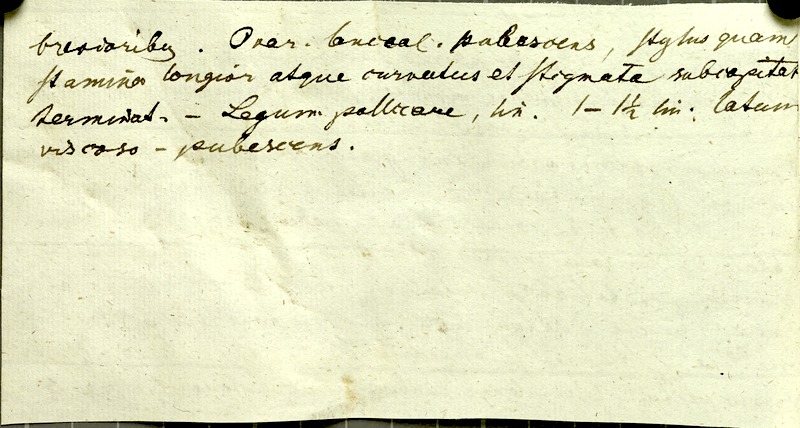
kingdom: Plantae
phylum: Tracheophyta
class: Magnoliopsida
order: Fabales
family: Fabaceae
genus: Chamaecrista
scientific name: Chamaecrista fagonioides
